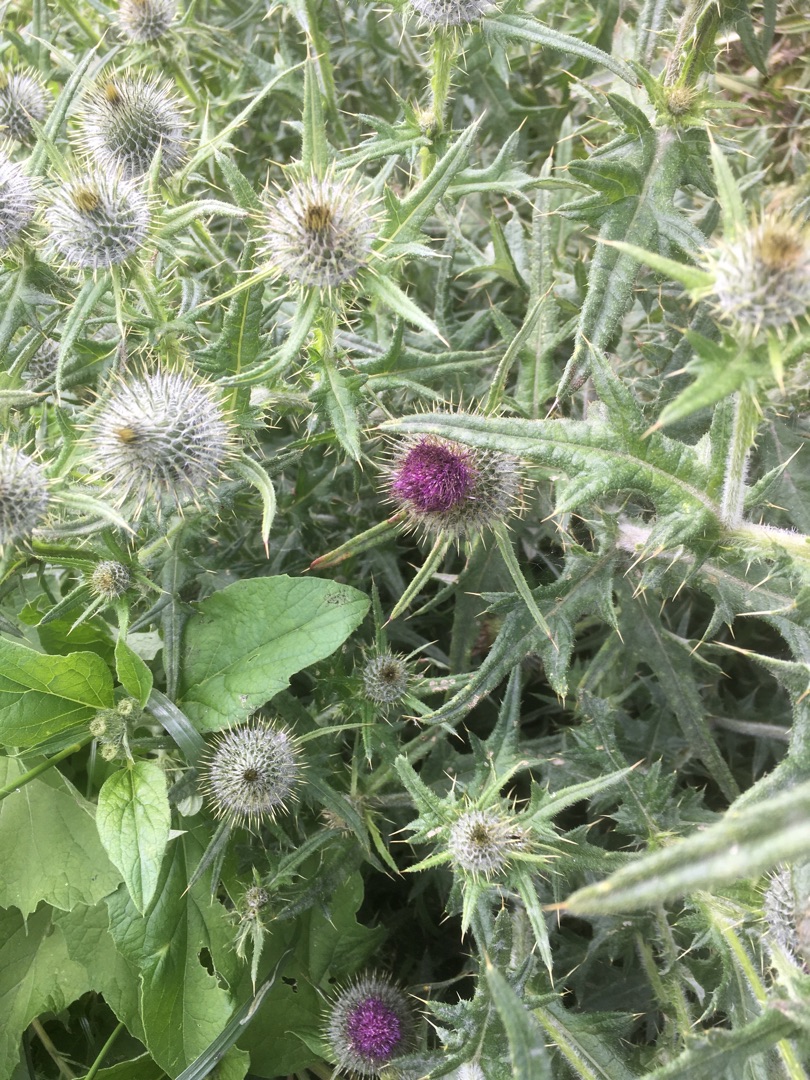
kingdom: Plantae
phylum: Tracheophyta
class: Magnoliopsida
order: Asterales
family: Asteraceae
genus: Cirsium
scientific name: Cirsium vulgare
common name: Horse-tidsel
